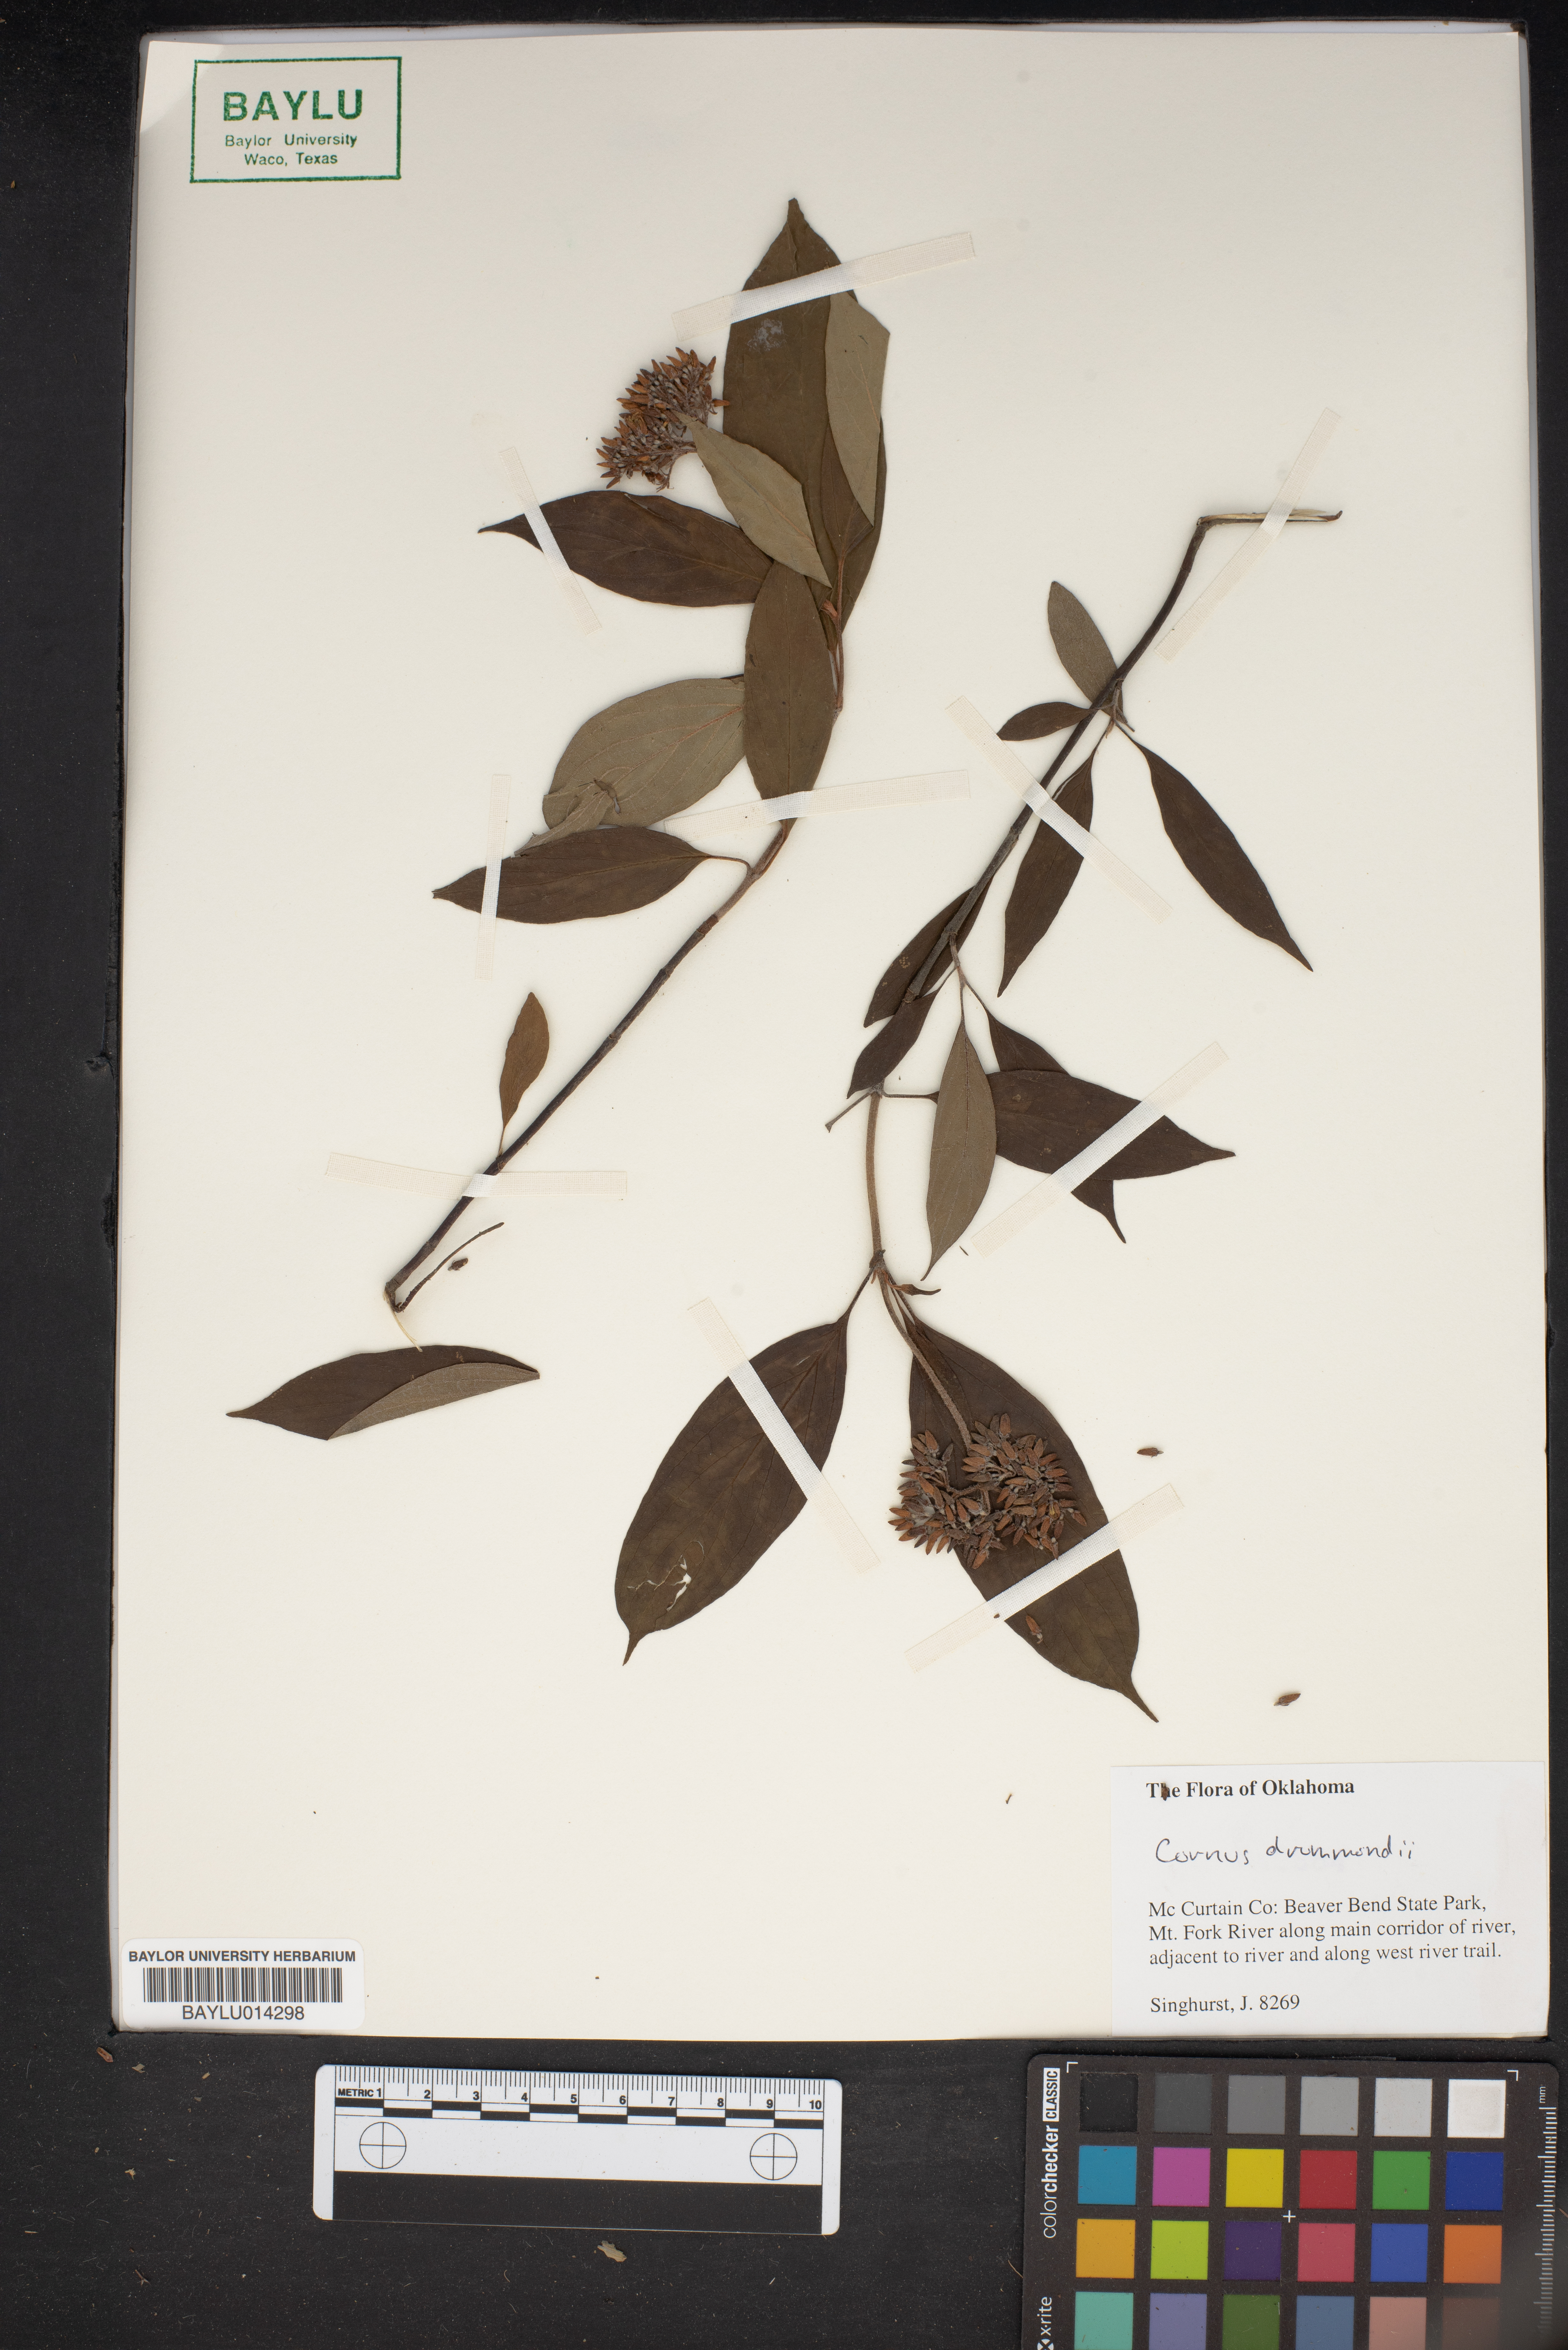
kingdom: Plantae
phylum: Tracheophyta
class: Magnoliopsida
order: Cornales
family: Cornaceae
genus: Cornus
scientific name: Cornus drummondii
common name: Rough-leaf dogwood
